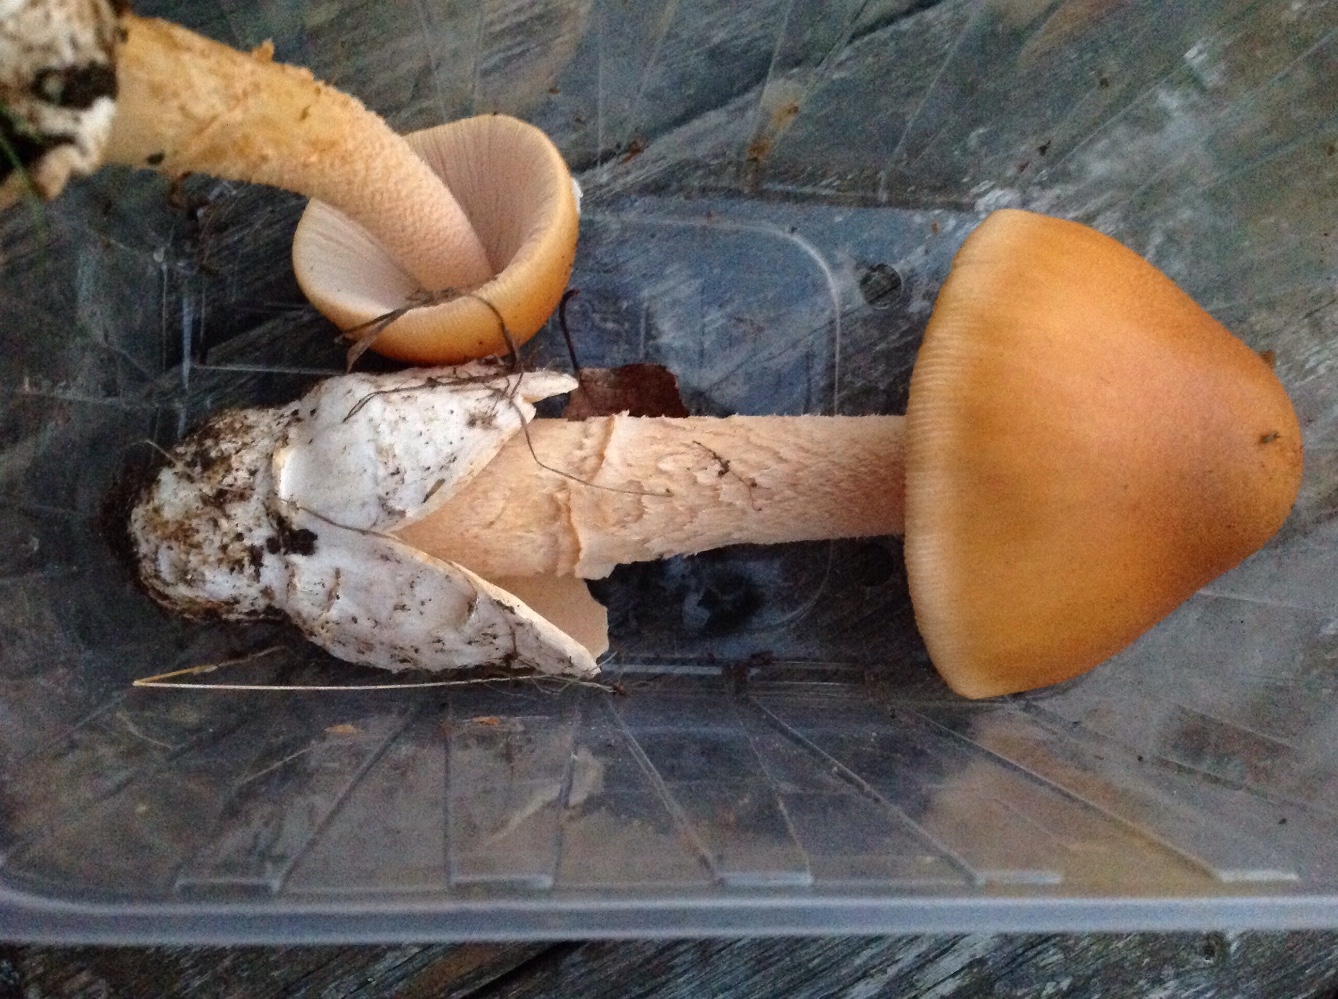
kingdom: Fungi
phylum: Basidiomycota
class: Agaricomycetes
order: Agaricales
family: Amanitaceae
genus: Amanita
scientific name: Amanita crocea
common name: gylden kam-fluesvamp
